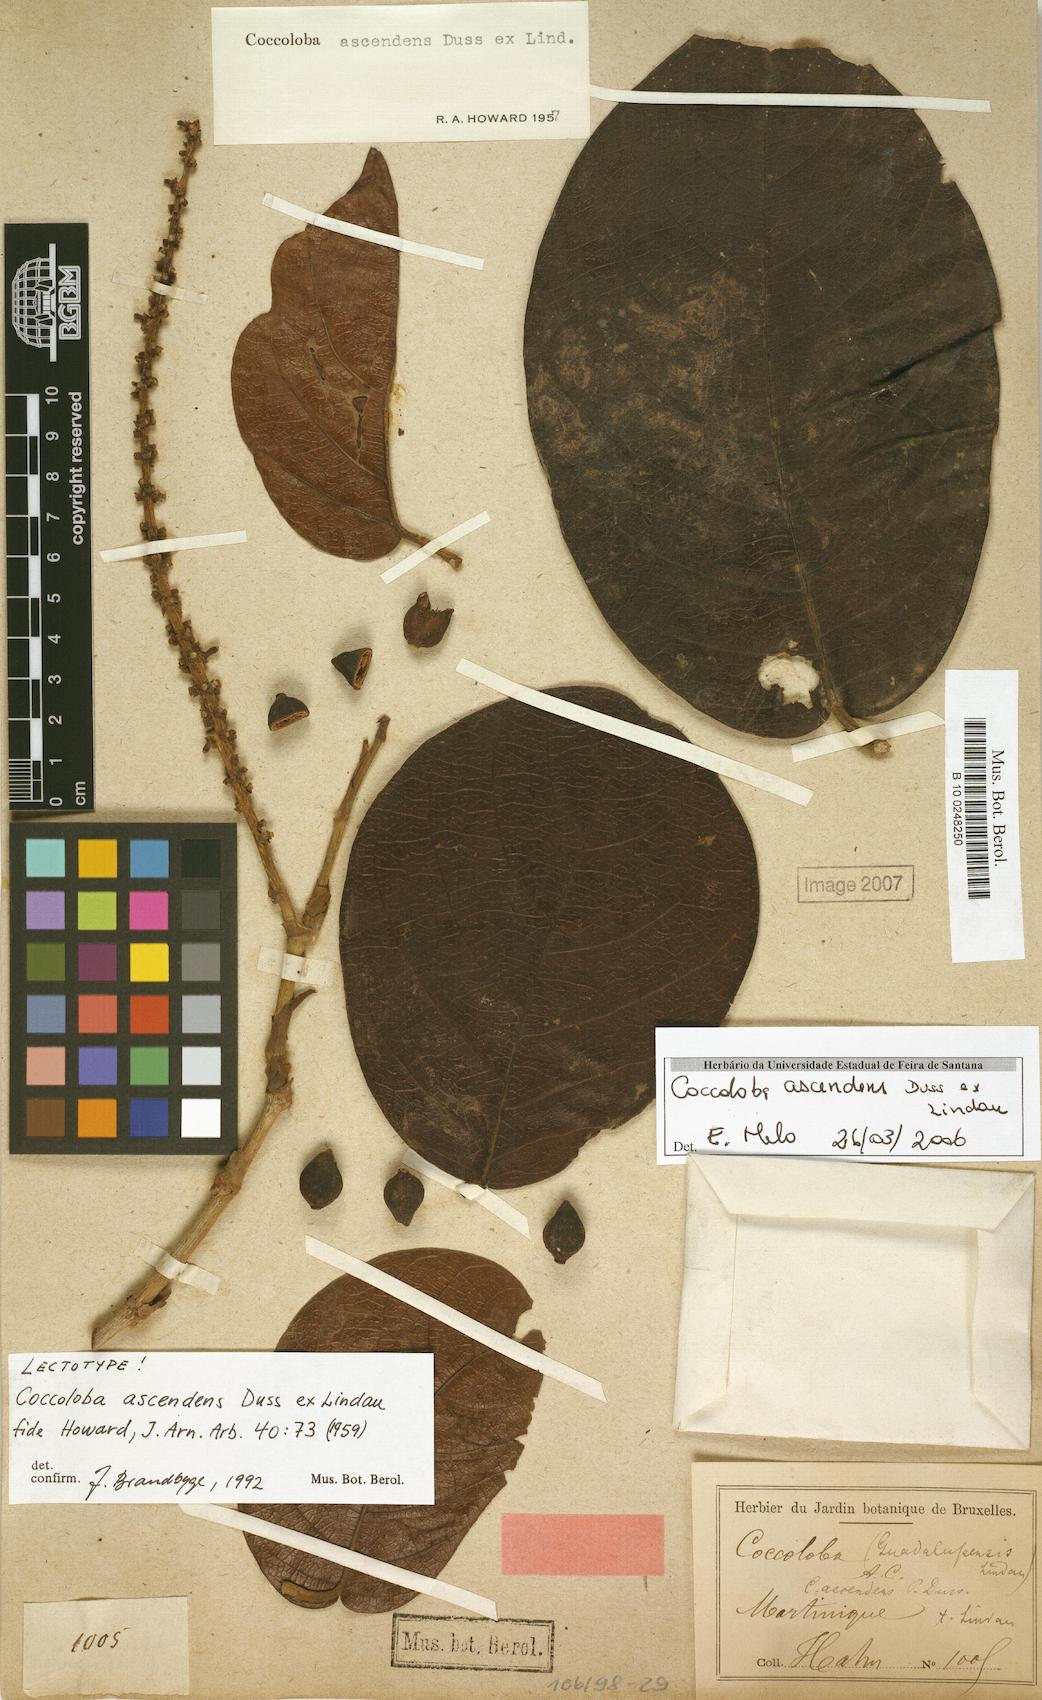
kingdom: Plantae
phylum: Tracheophyta
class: Magnoliopsida
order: Caryophyllales
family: Polygonaceae
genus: Coccoloba
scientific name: Coccoloba ascendens
